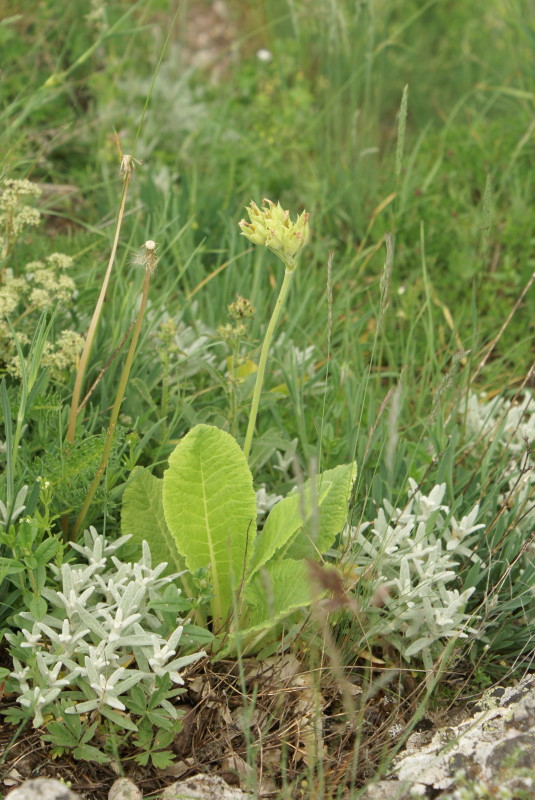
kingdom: Plantae
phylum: Tracheophyta
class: Magnoliopsida
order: Ericales
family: Primulaceae
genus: Primula
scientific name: Primula veris
